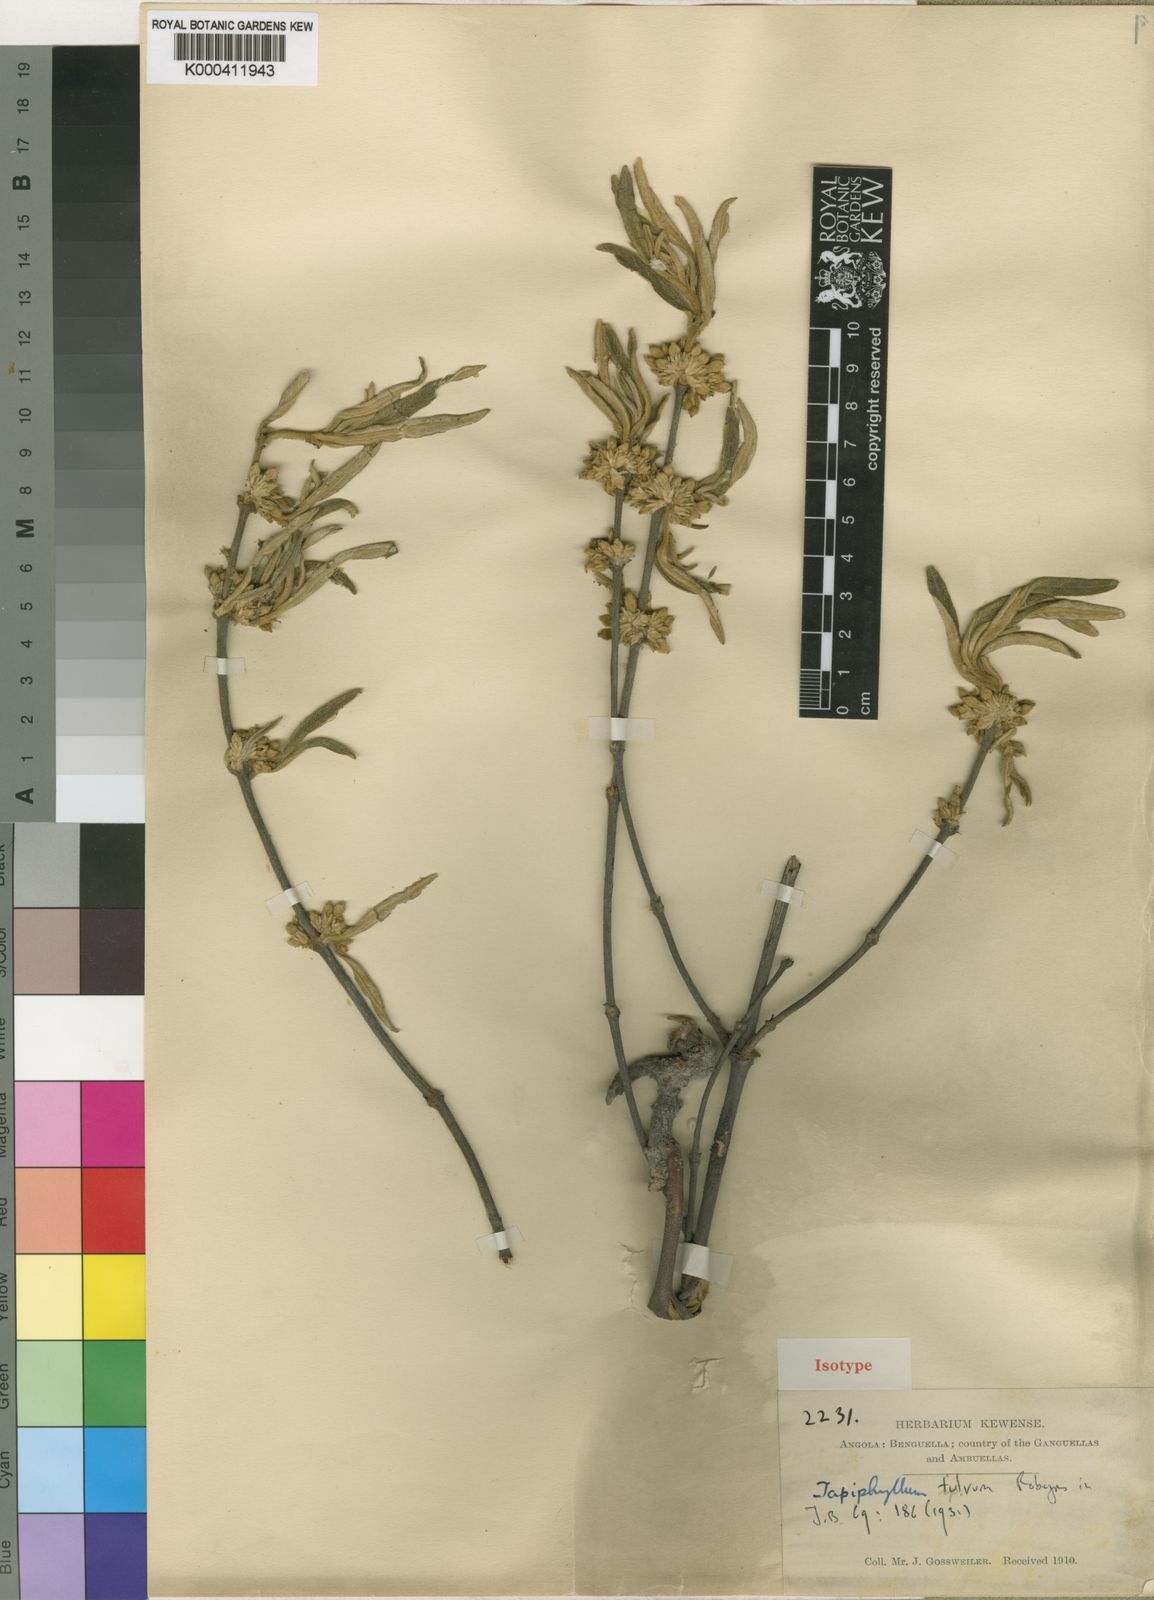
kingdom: Plantae
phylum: Tracheophyta
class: Magnoliopsida
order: Gentianales
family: Rubiaceae
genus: Vangueria
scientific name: Vangueria fulva
